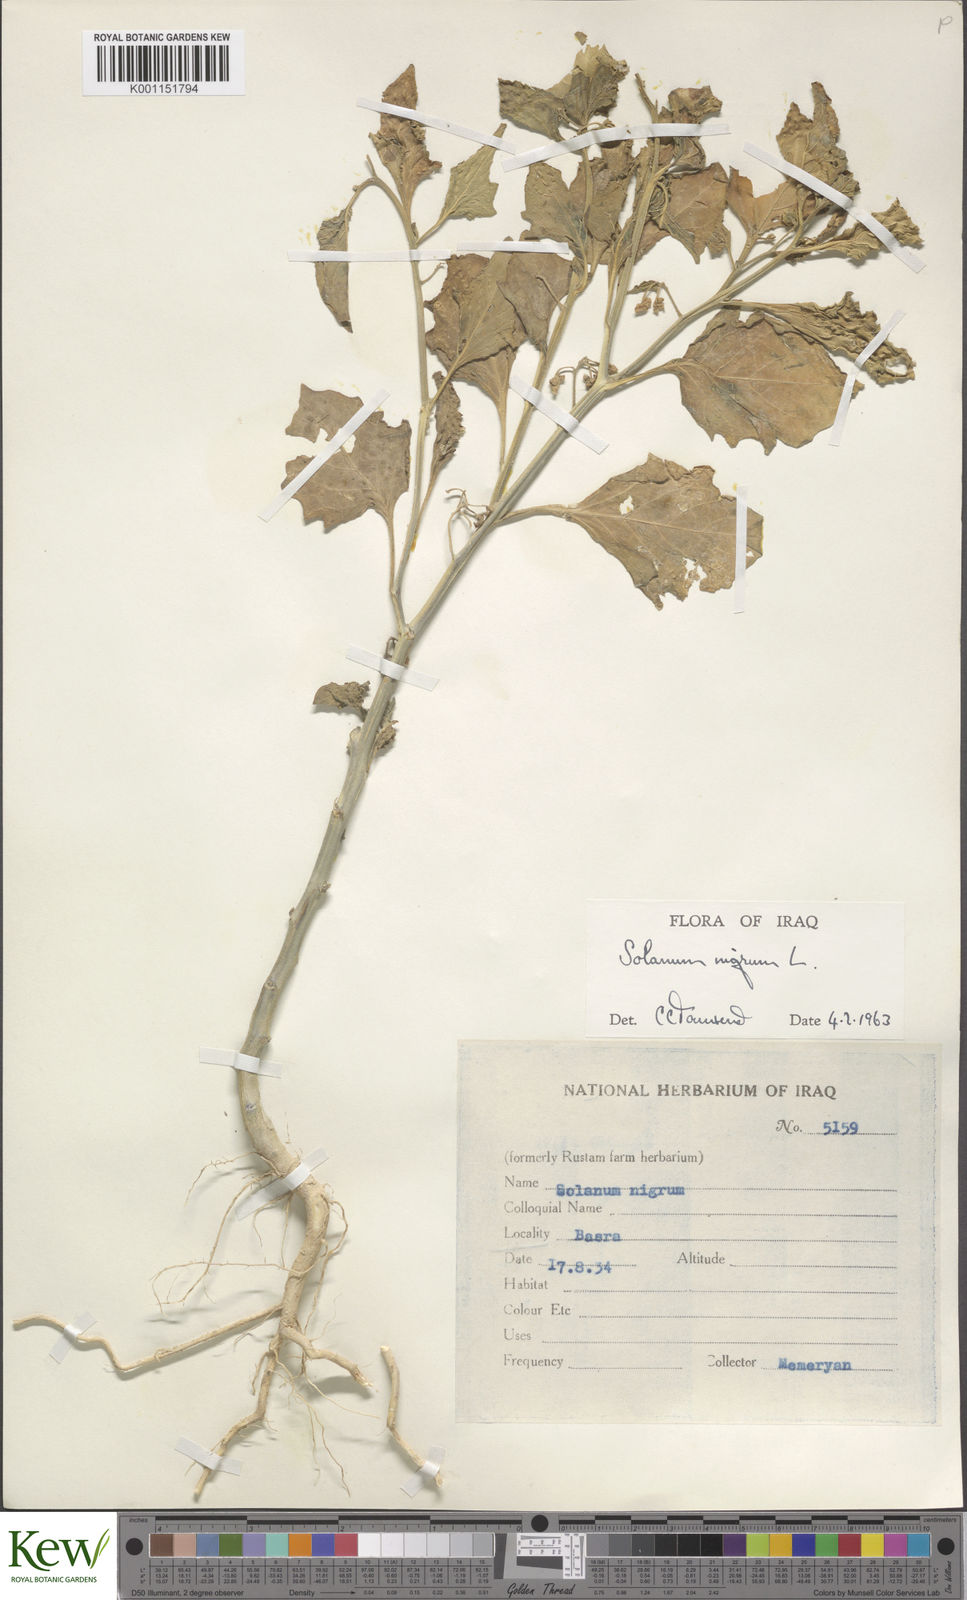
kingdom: Plantae
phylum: Tracheophyta
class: Magnoliopsida
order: Solanales
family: Solanaceae
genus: Solanum
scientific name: Solanum nigrum
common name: Black nightshade
